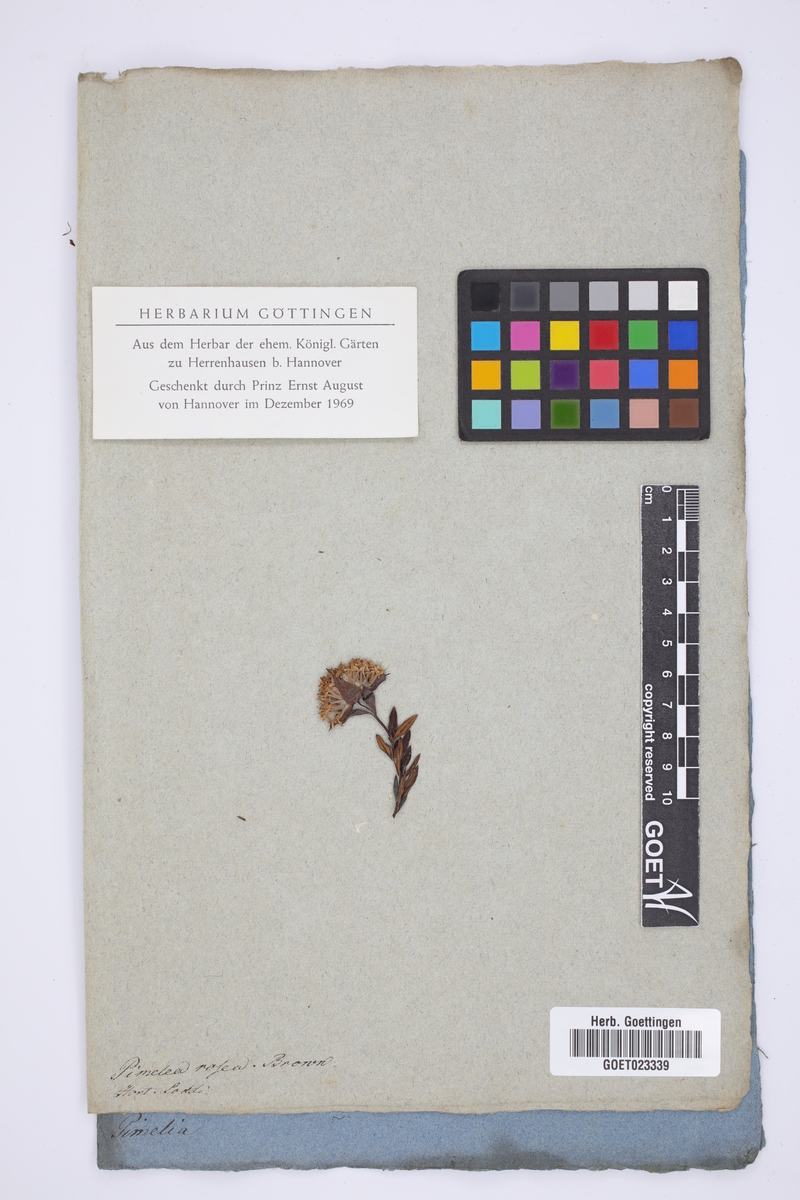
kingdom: Plantae
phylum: Tracheophyta
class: Magnoliopsida
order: Malvales
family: Thymelaeaceae
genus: Pimelea
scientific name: Pimelea rosea
